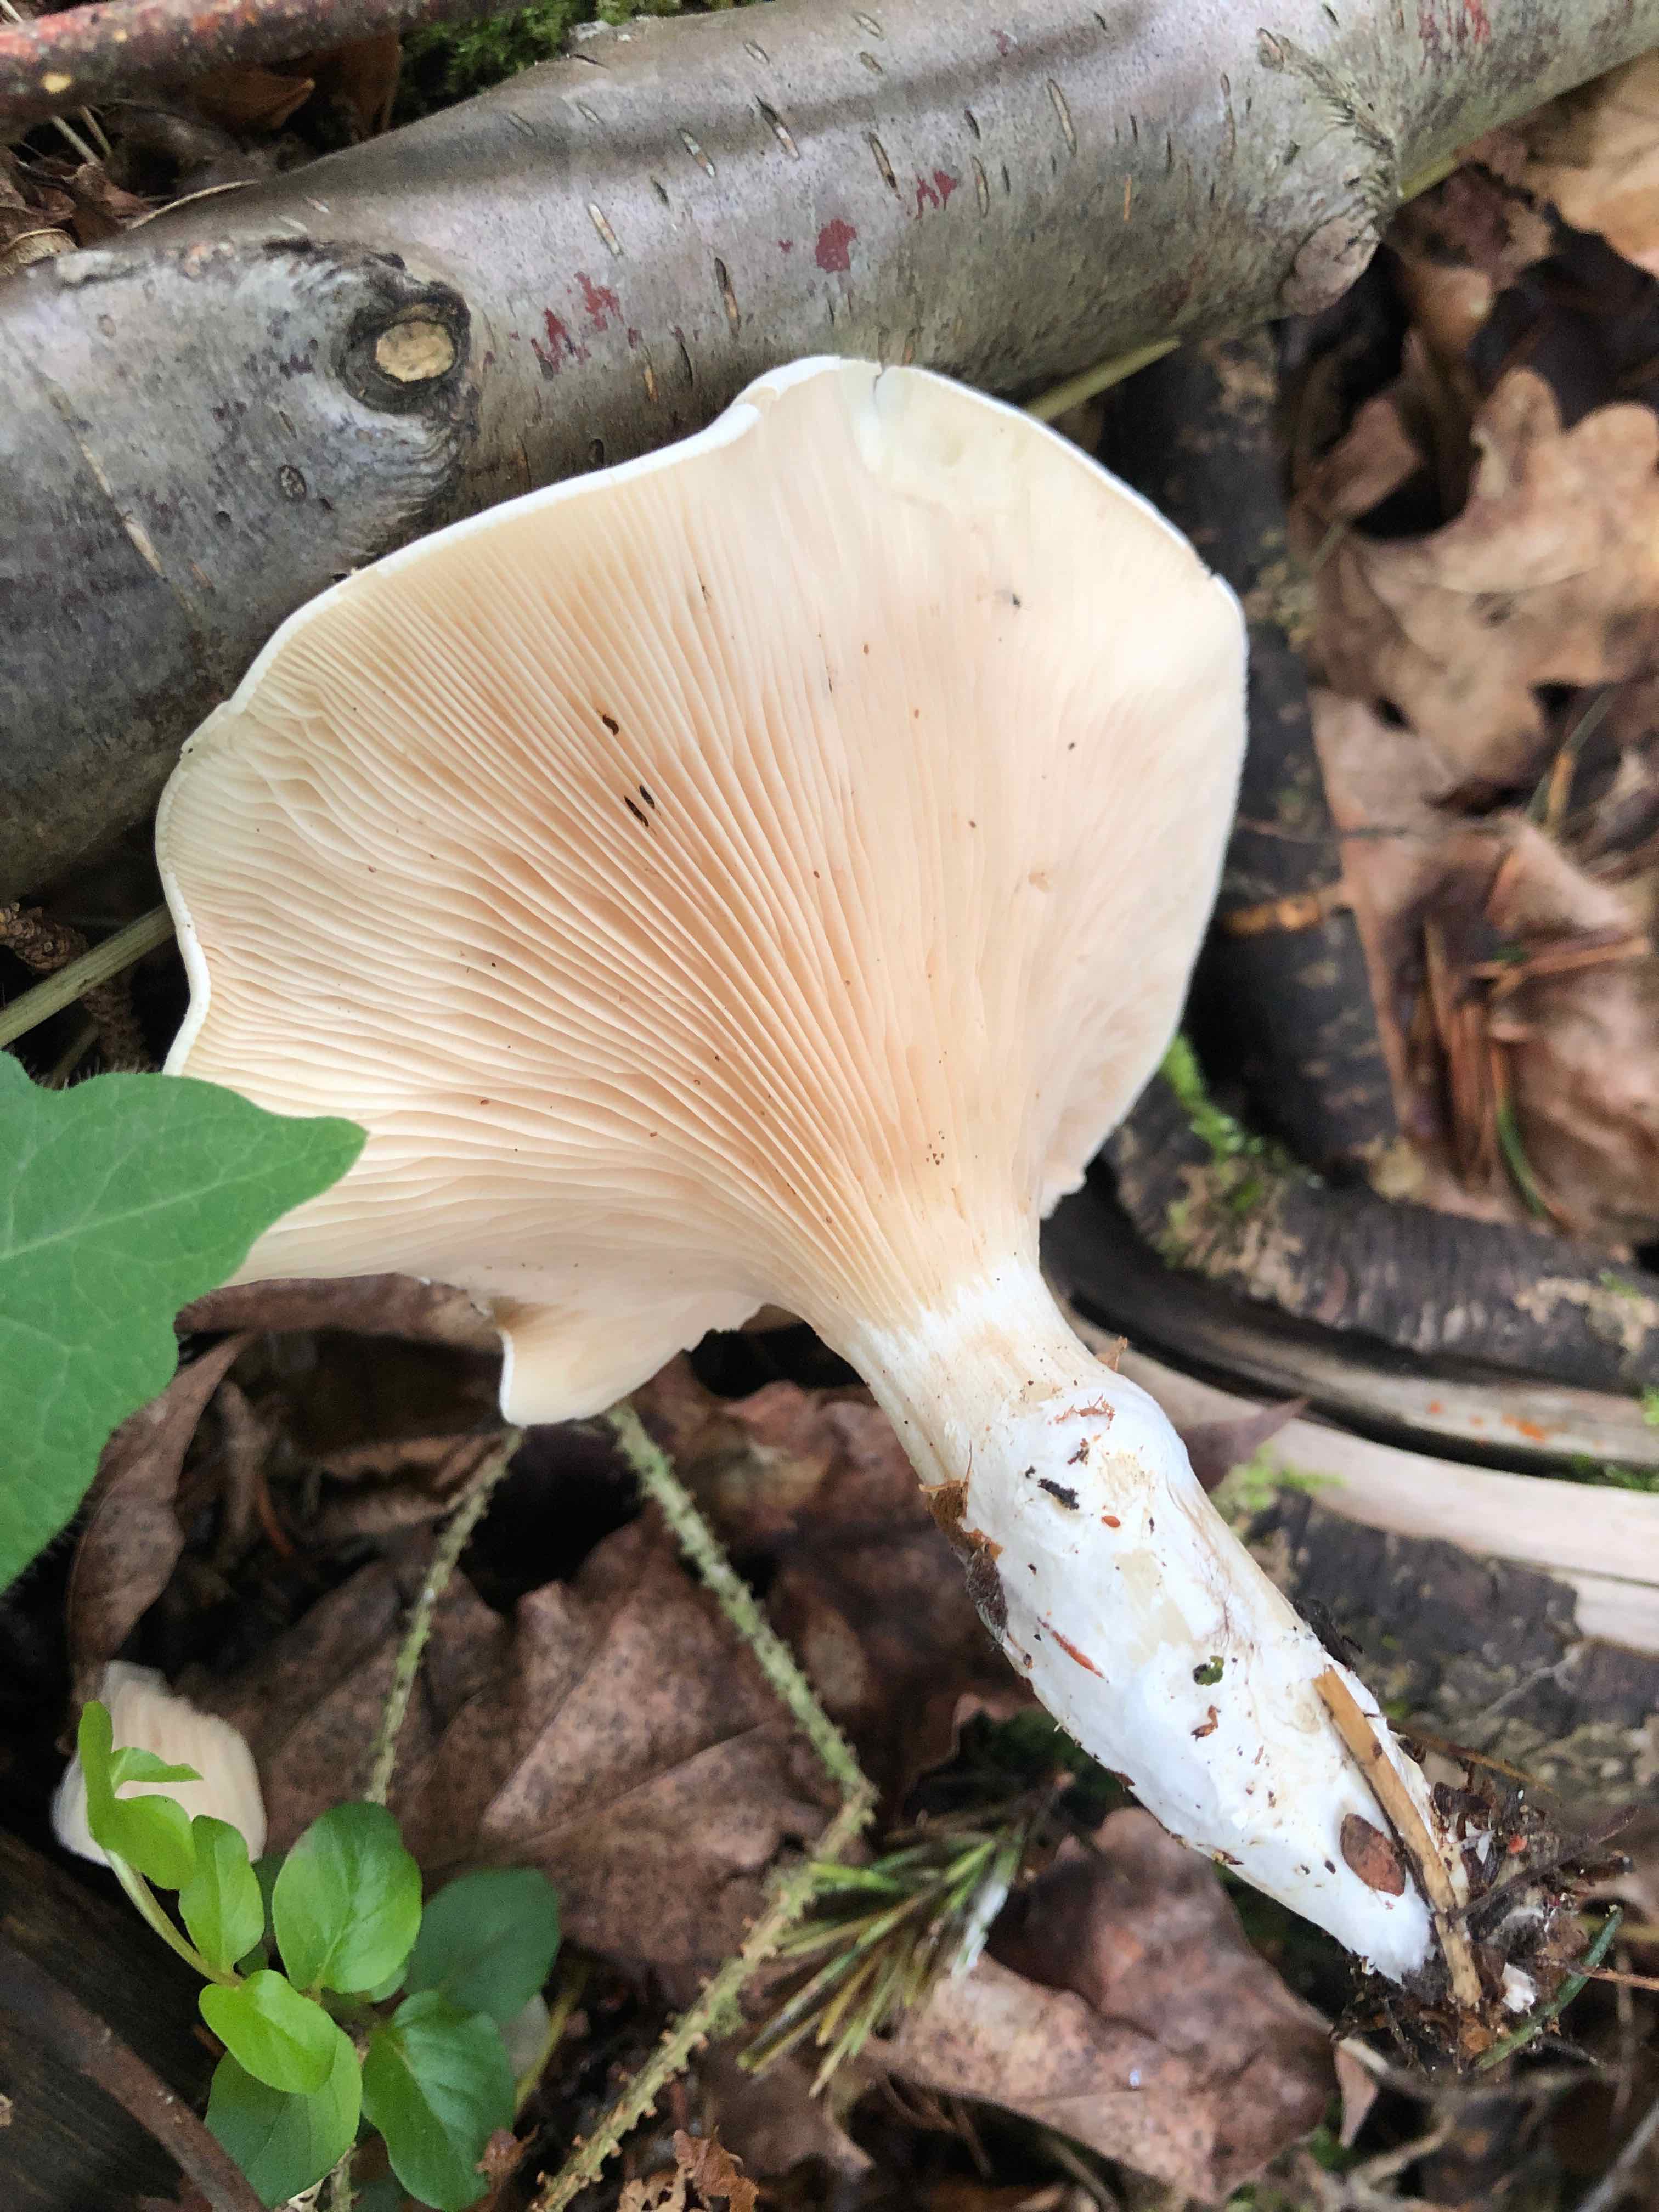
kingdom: Fungi
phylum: Basidiomycota
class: Agaricomycetes
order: Agaricales
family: Entolomataceae
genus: Clitopilus
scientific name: Clitopilus prunulus
